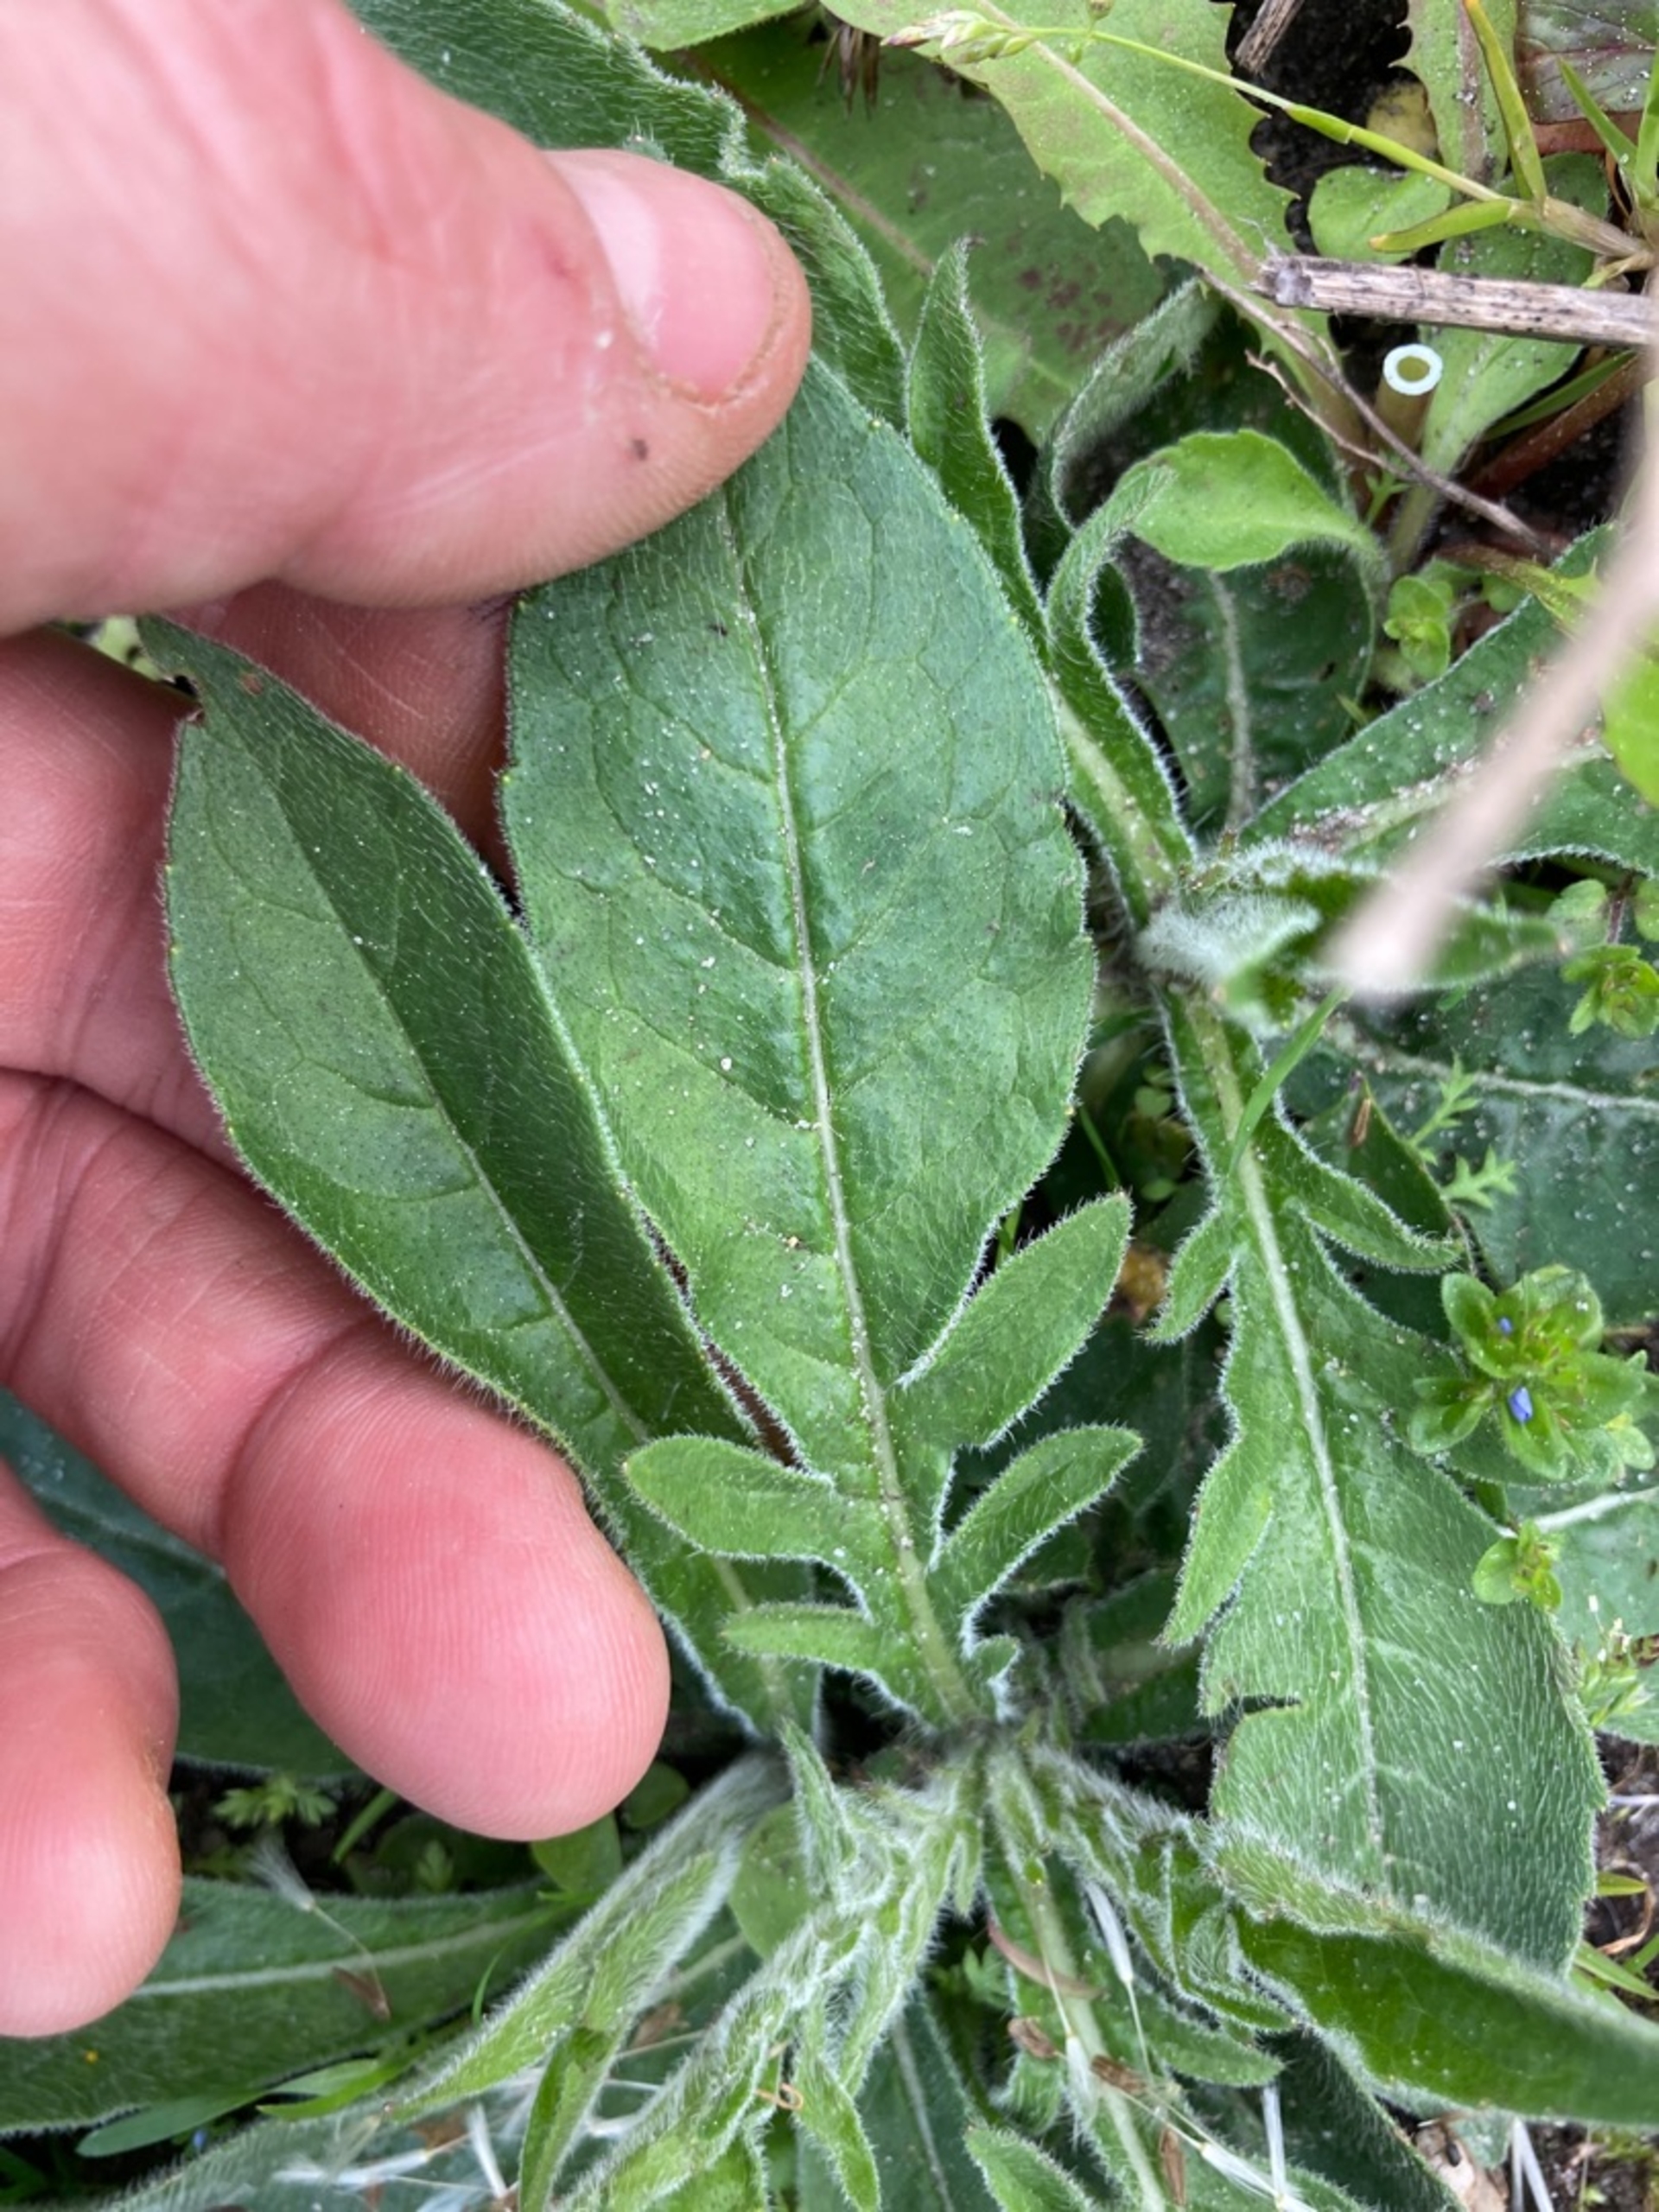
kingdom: Plantae
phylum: Tracheophyta
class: Magnoliopsida
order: Dipsacales
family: Caprifoliaceae
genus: Knautia
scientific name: Knautia arvensis
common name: Blåhat
